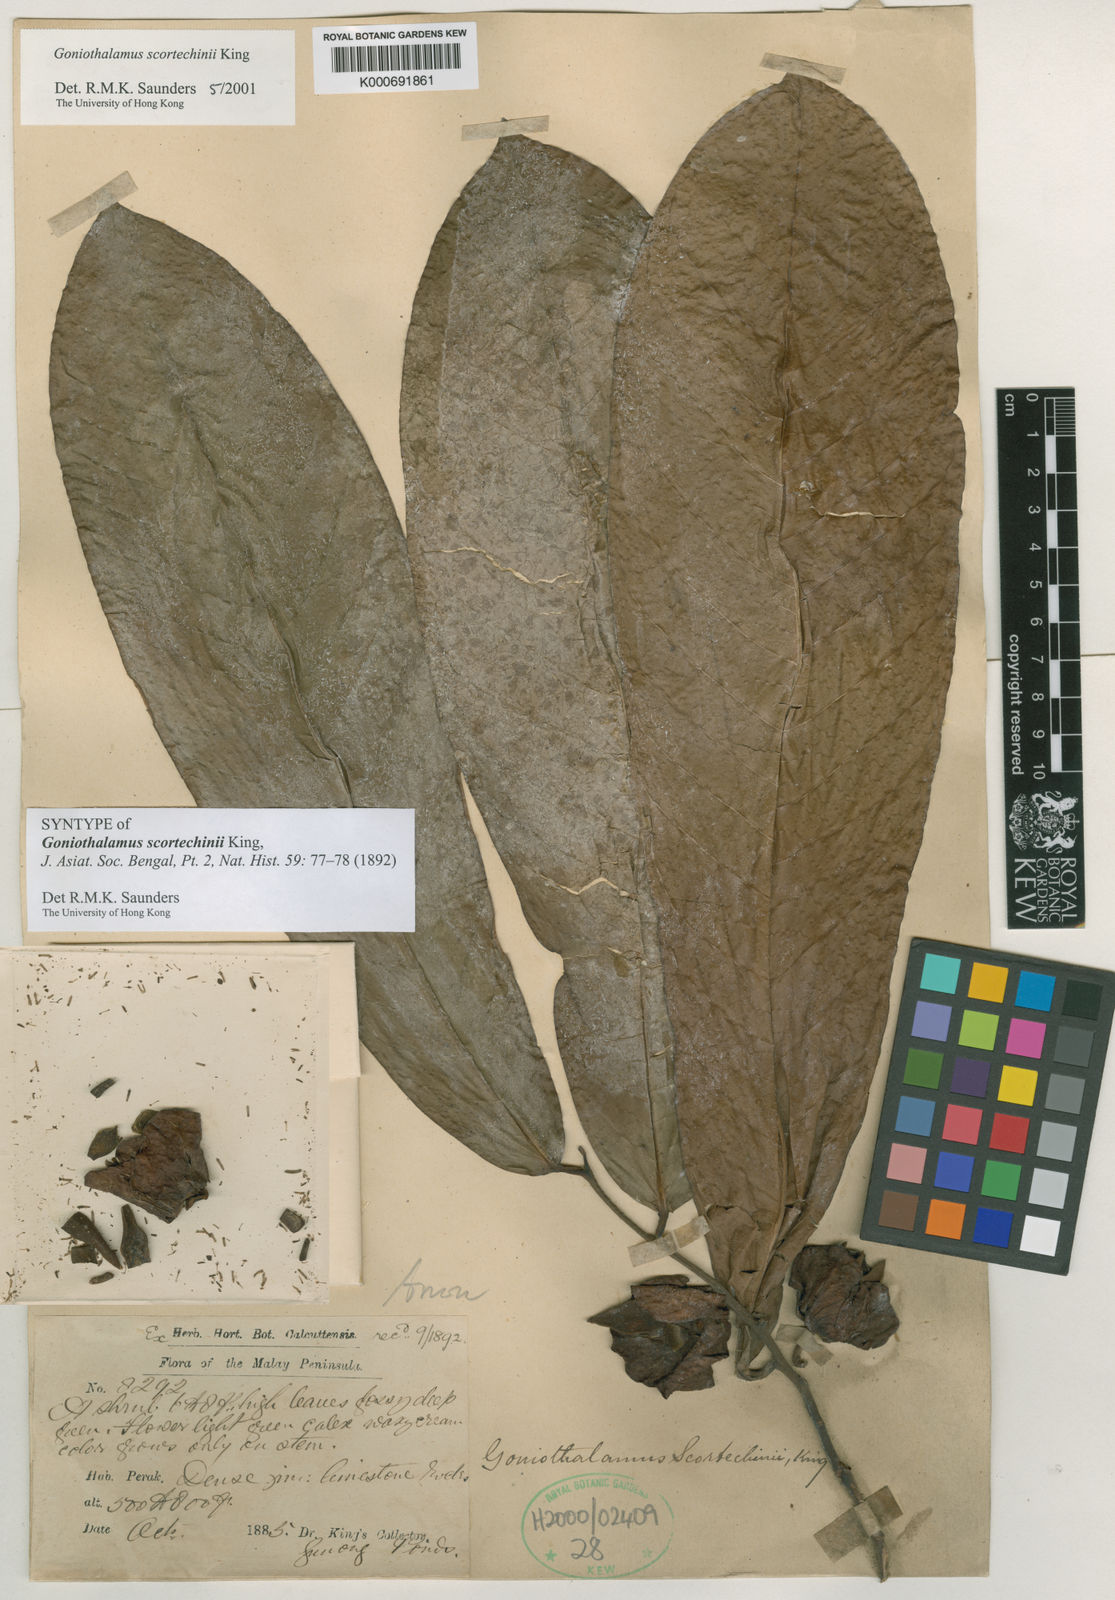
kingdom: Plantae
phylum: Tracheophyta
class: Magnoliopsida
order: Magnoliales
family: Annonaceae
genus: Goniothalamus
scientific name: Goniothalamus scortechinii
